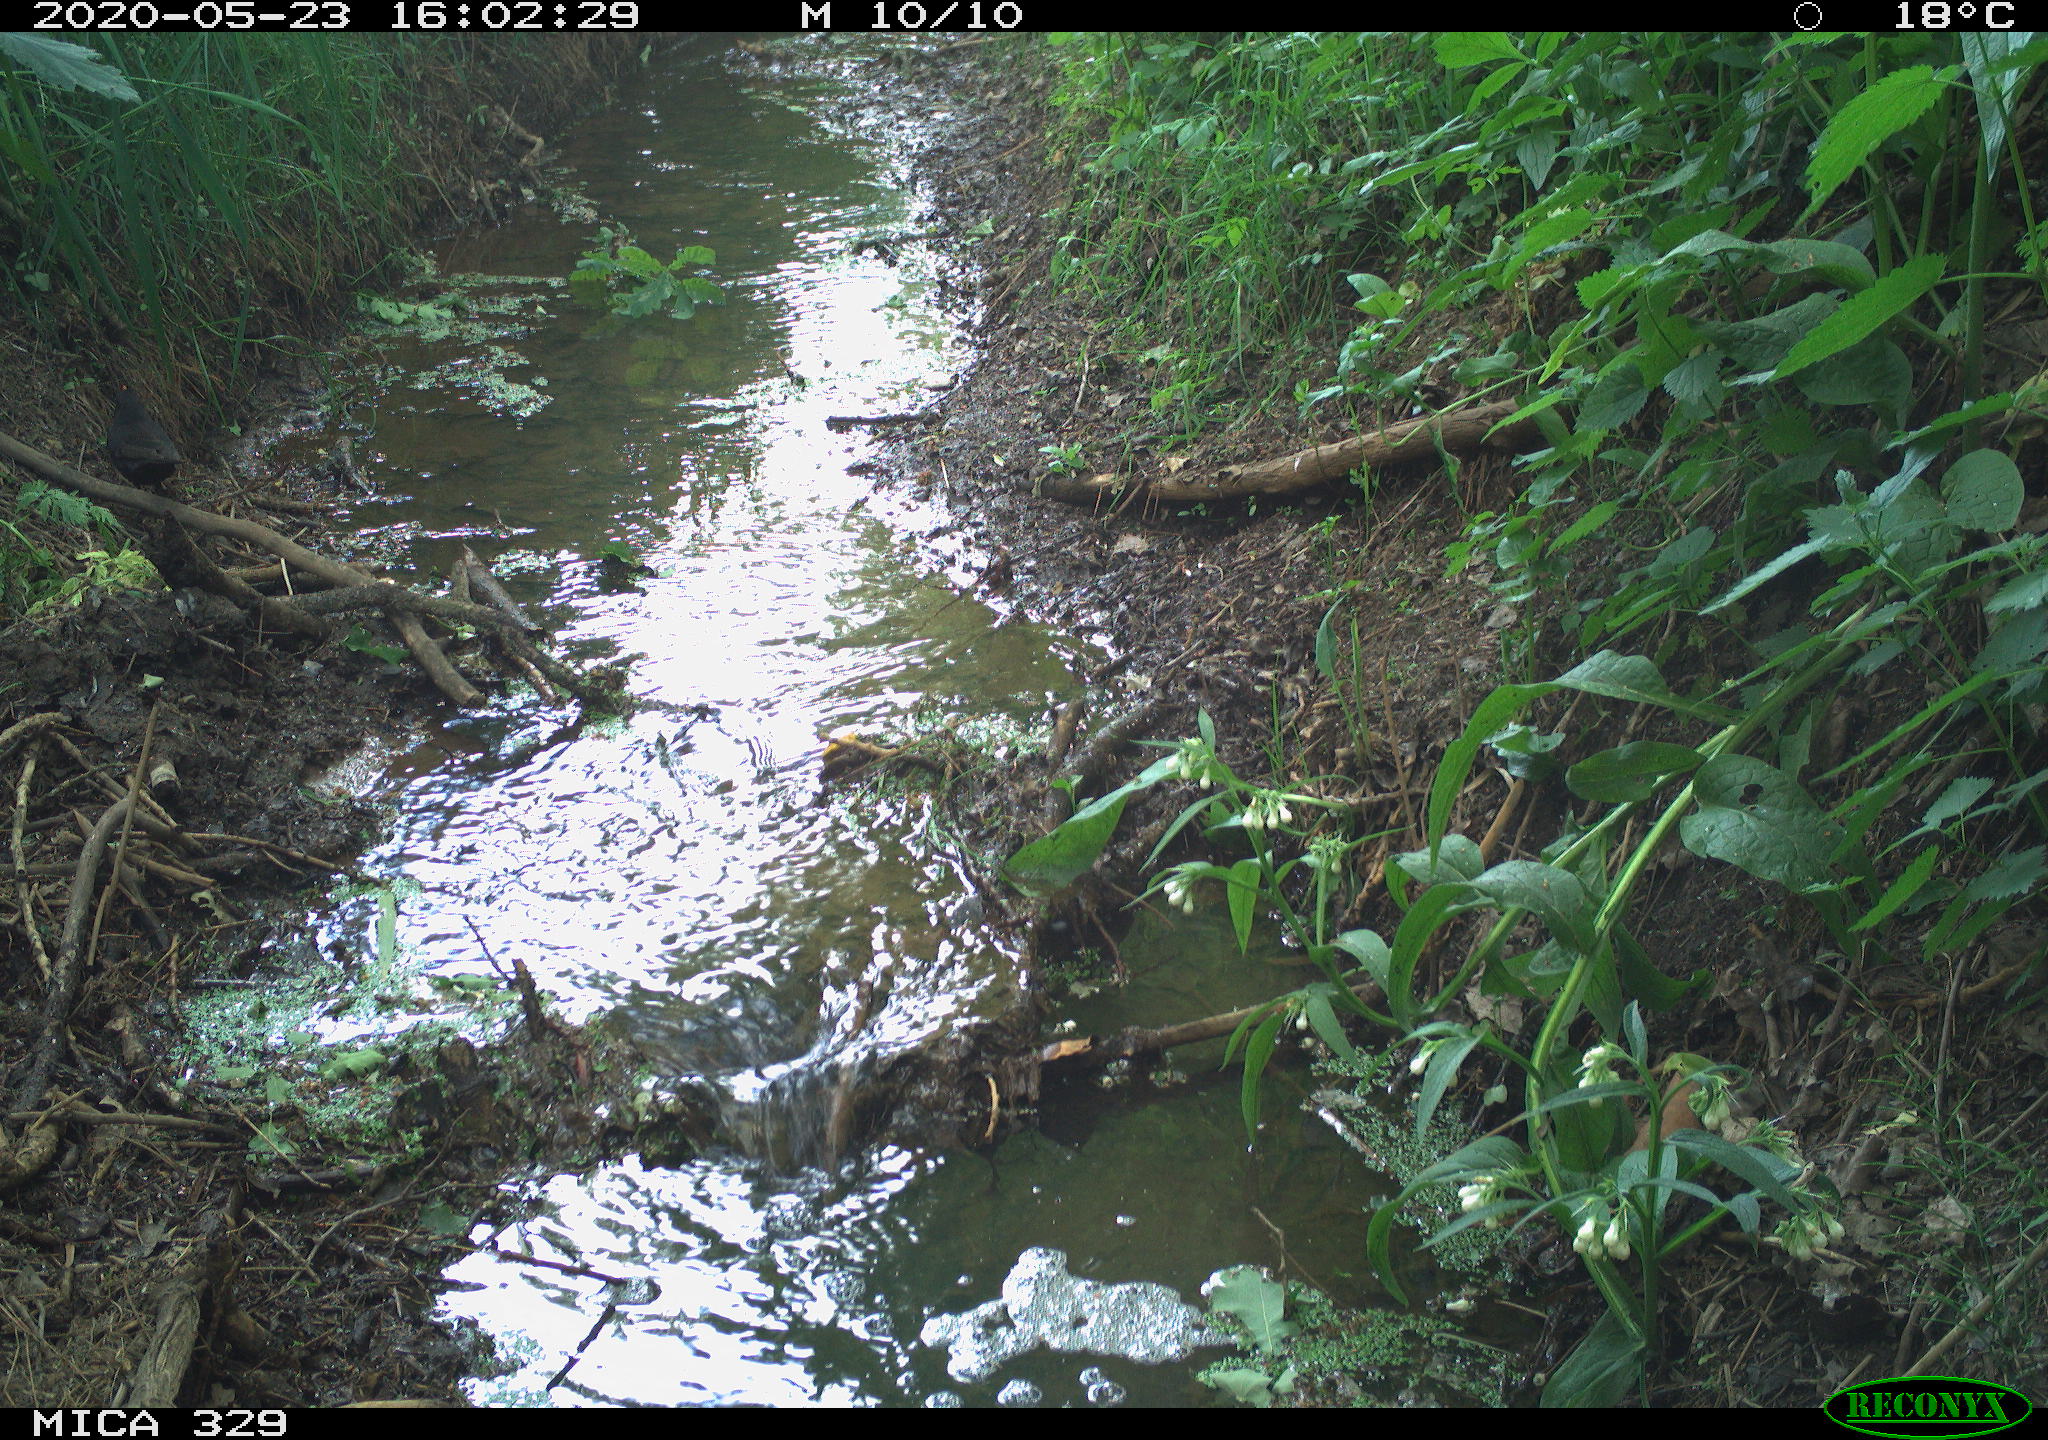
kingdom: Animalia
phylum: Chordata
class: Aves
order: Passeriformes
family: Turdidae
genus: Turdus
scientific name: Turdus merula
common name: Common blackbird
